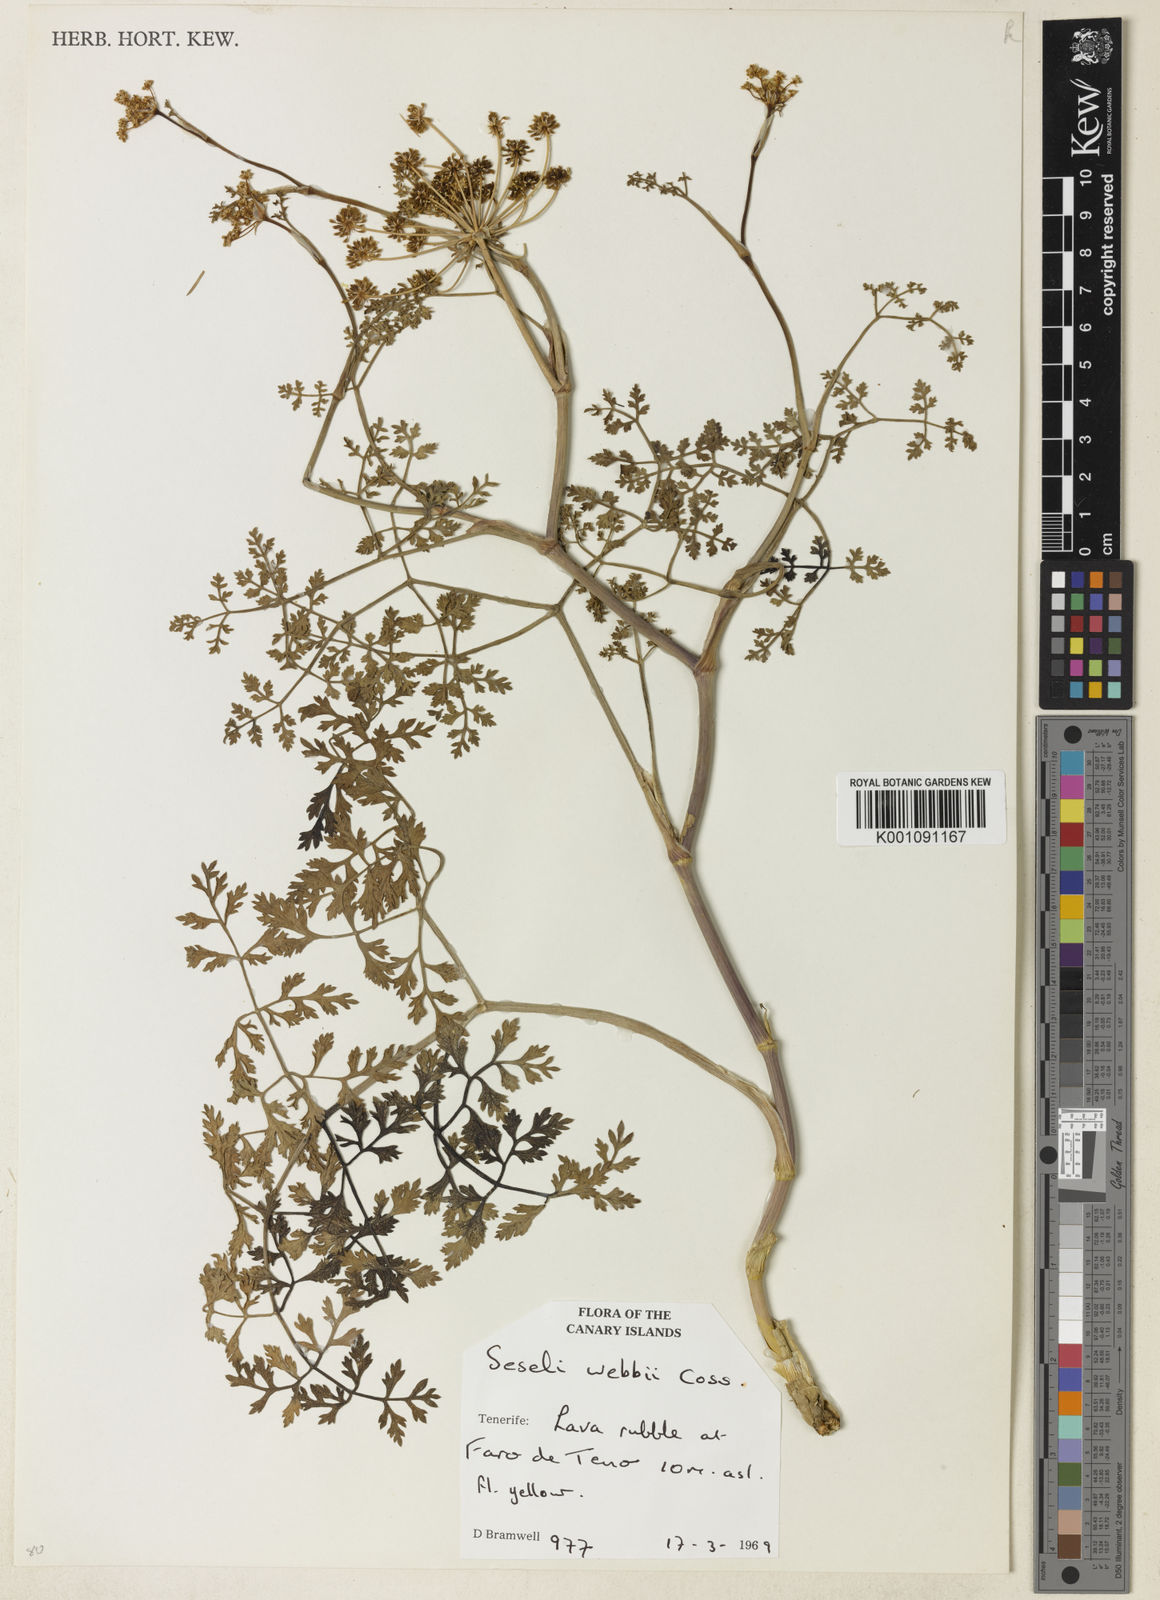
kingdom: Plantae
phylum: Tracheophyta
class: Magnoliopsida
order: Apiales
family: Apiaceae
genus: Rutheopsis
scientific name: Rutheopsis tortuosa
